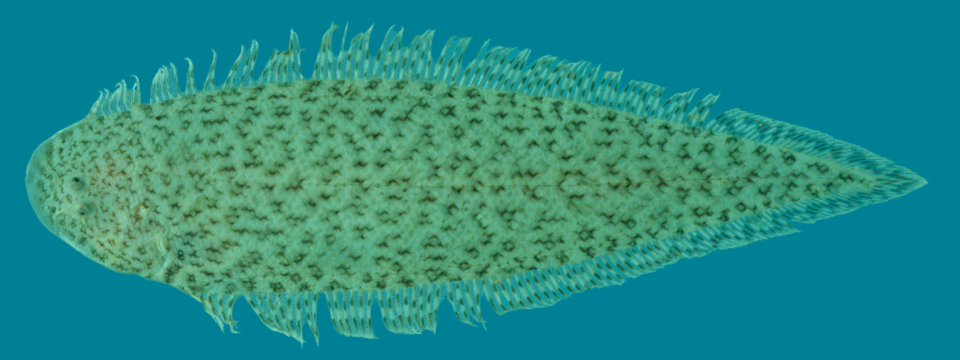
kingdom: Animalia
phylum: Chordata
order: Pleuronectiformes
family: Cynoglossidae
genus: Cynoglossus
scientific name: Cynoglossus
